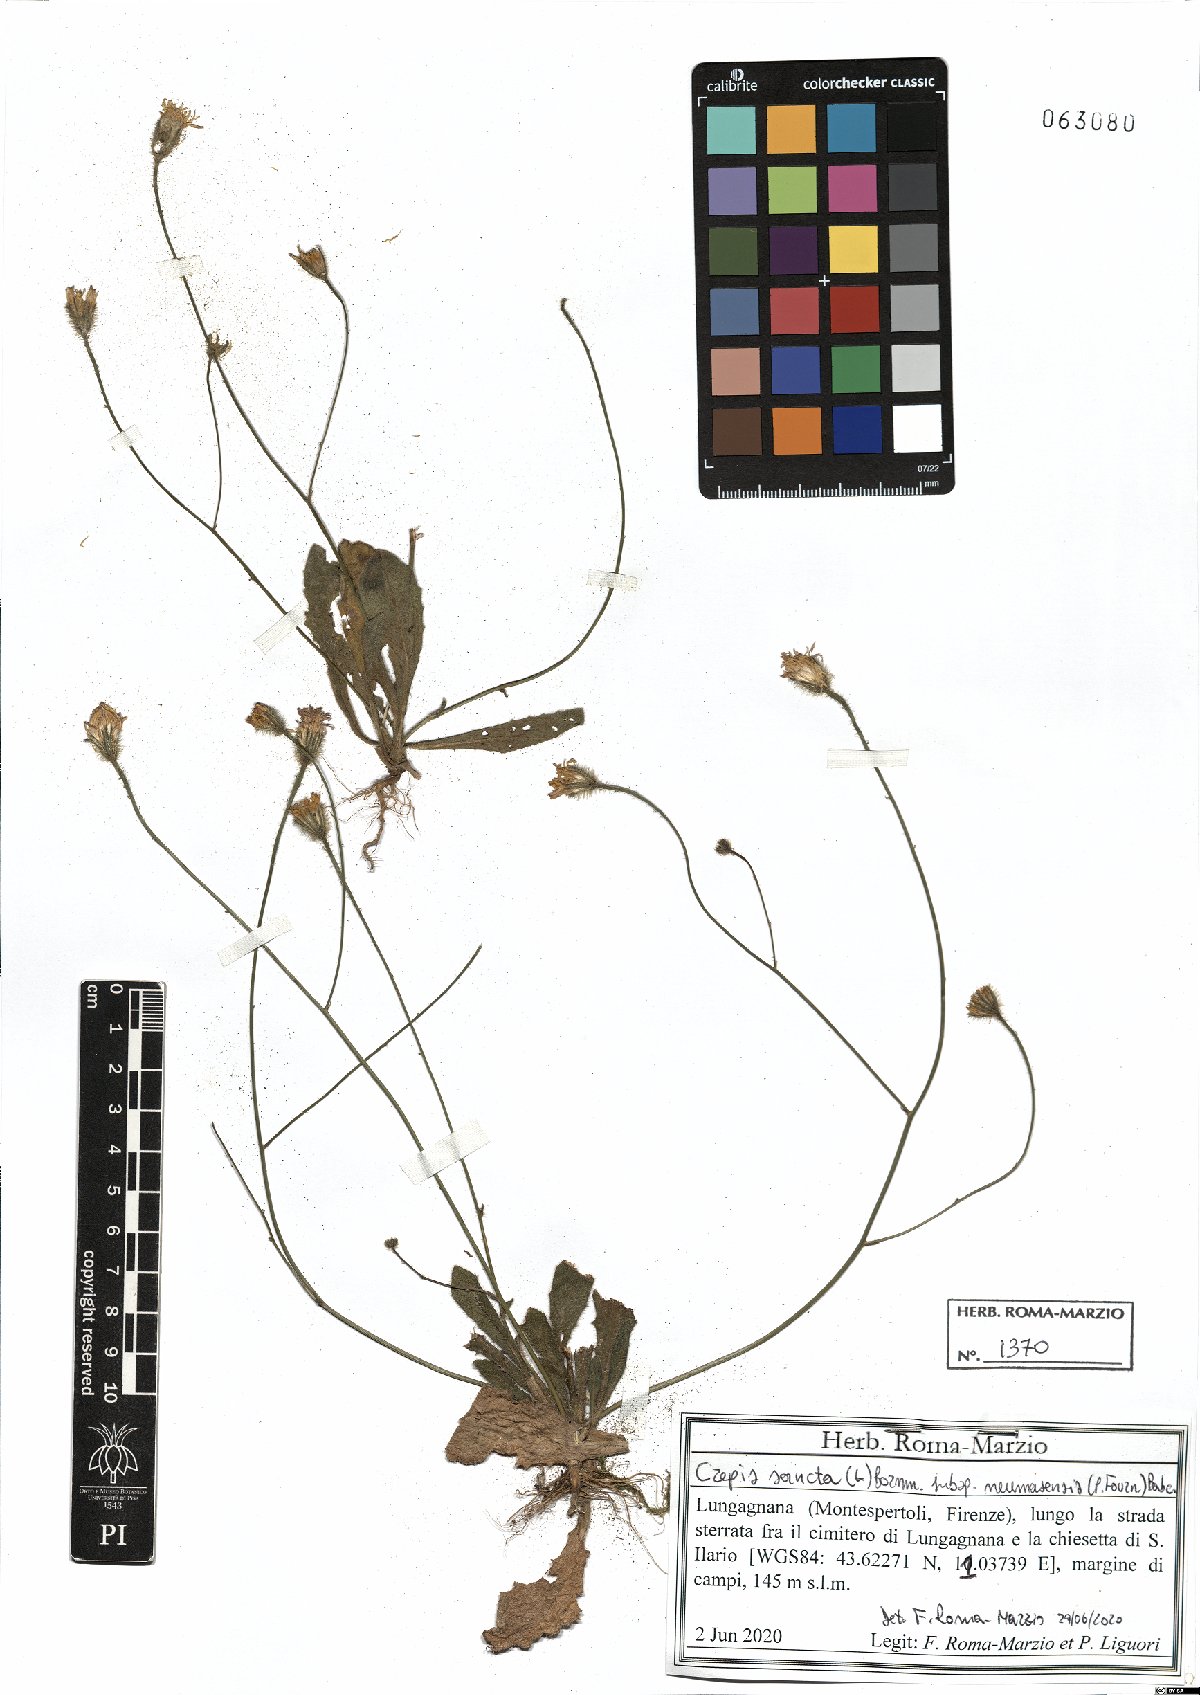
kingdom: Plantae
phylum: Tracheophyta
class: Magnoliopsida
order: Asterales
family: Asteraceae
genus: Crepis
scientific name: Crepis sancta
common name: Hawk's-beard
